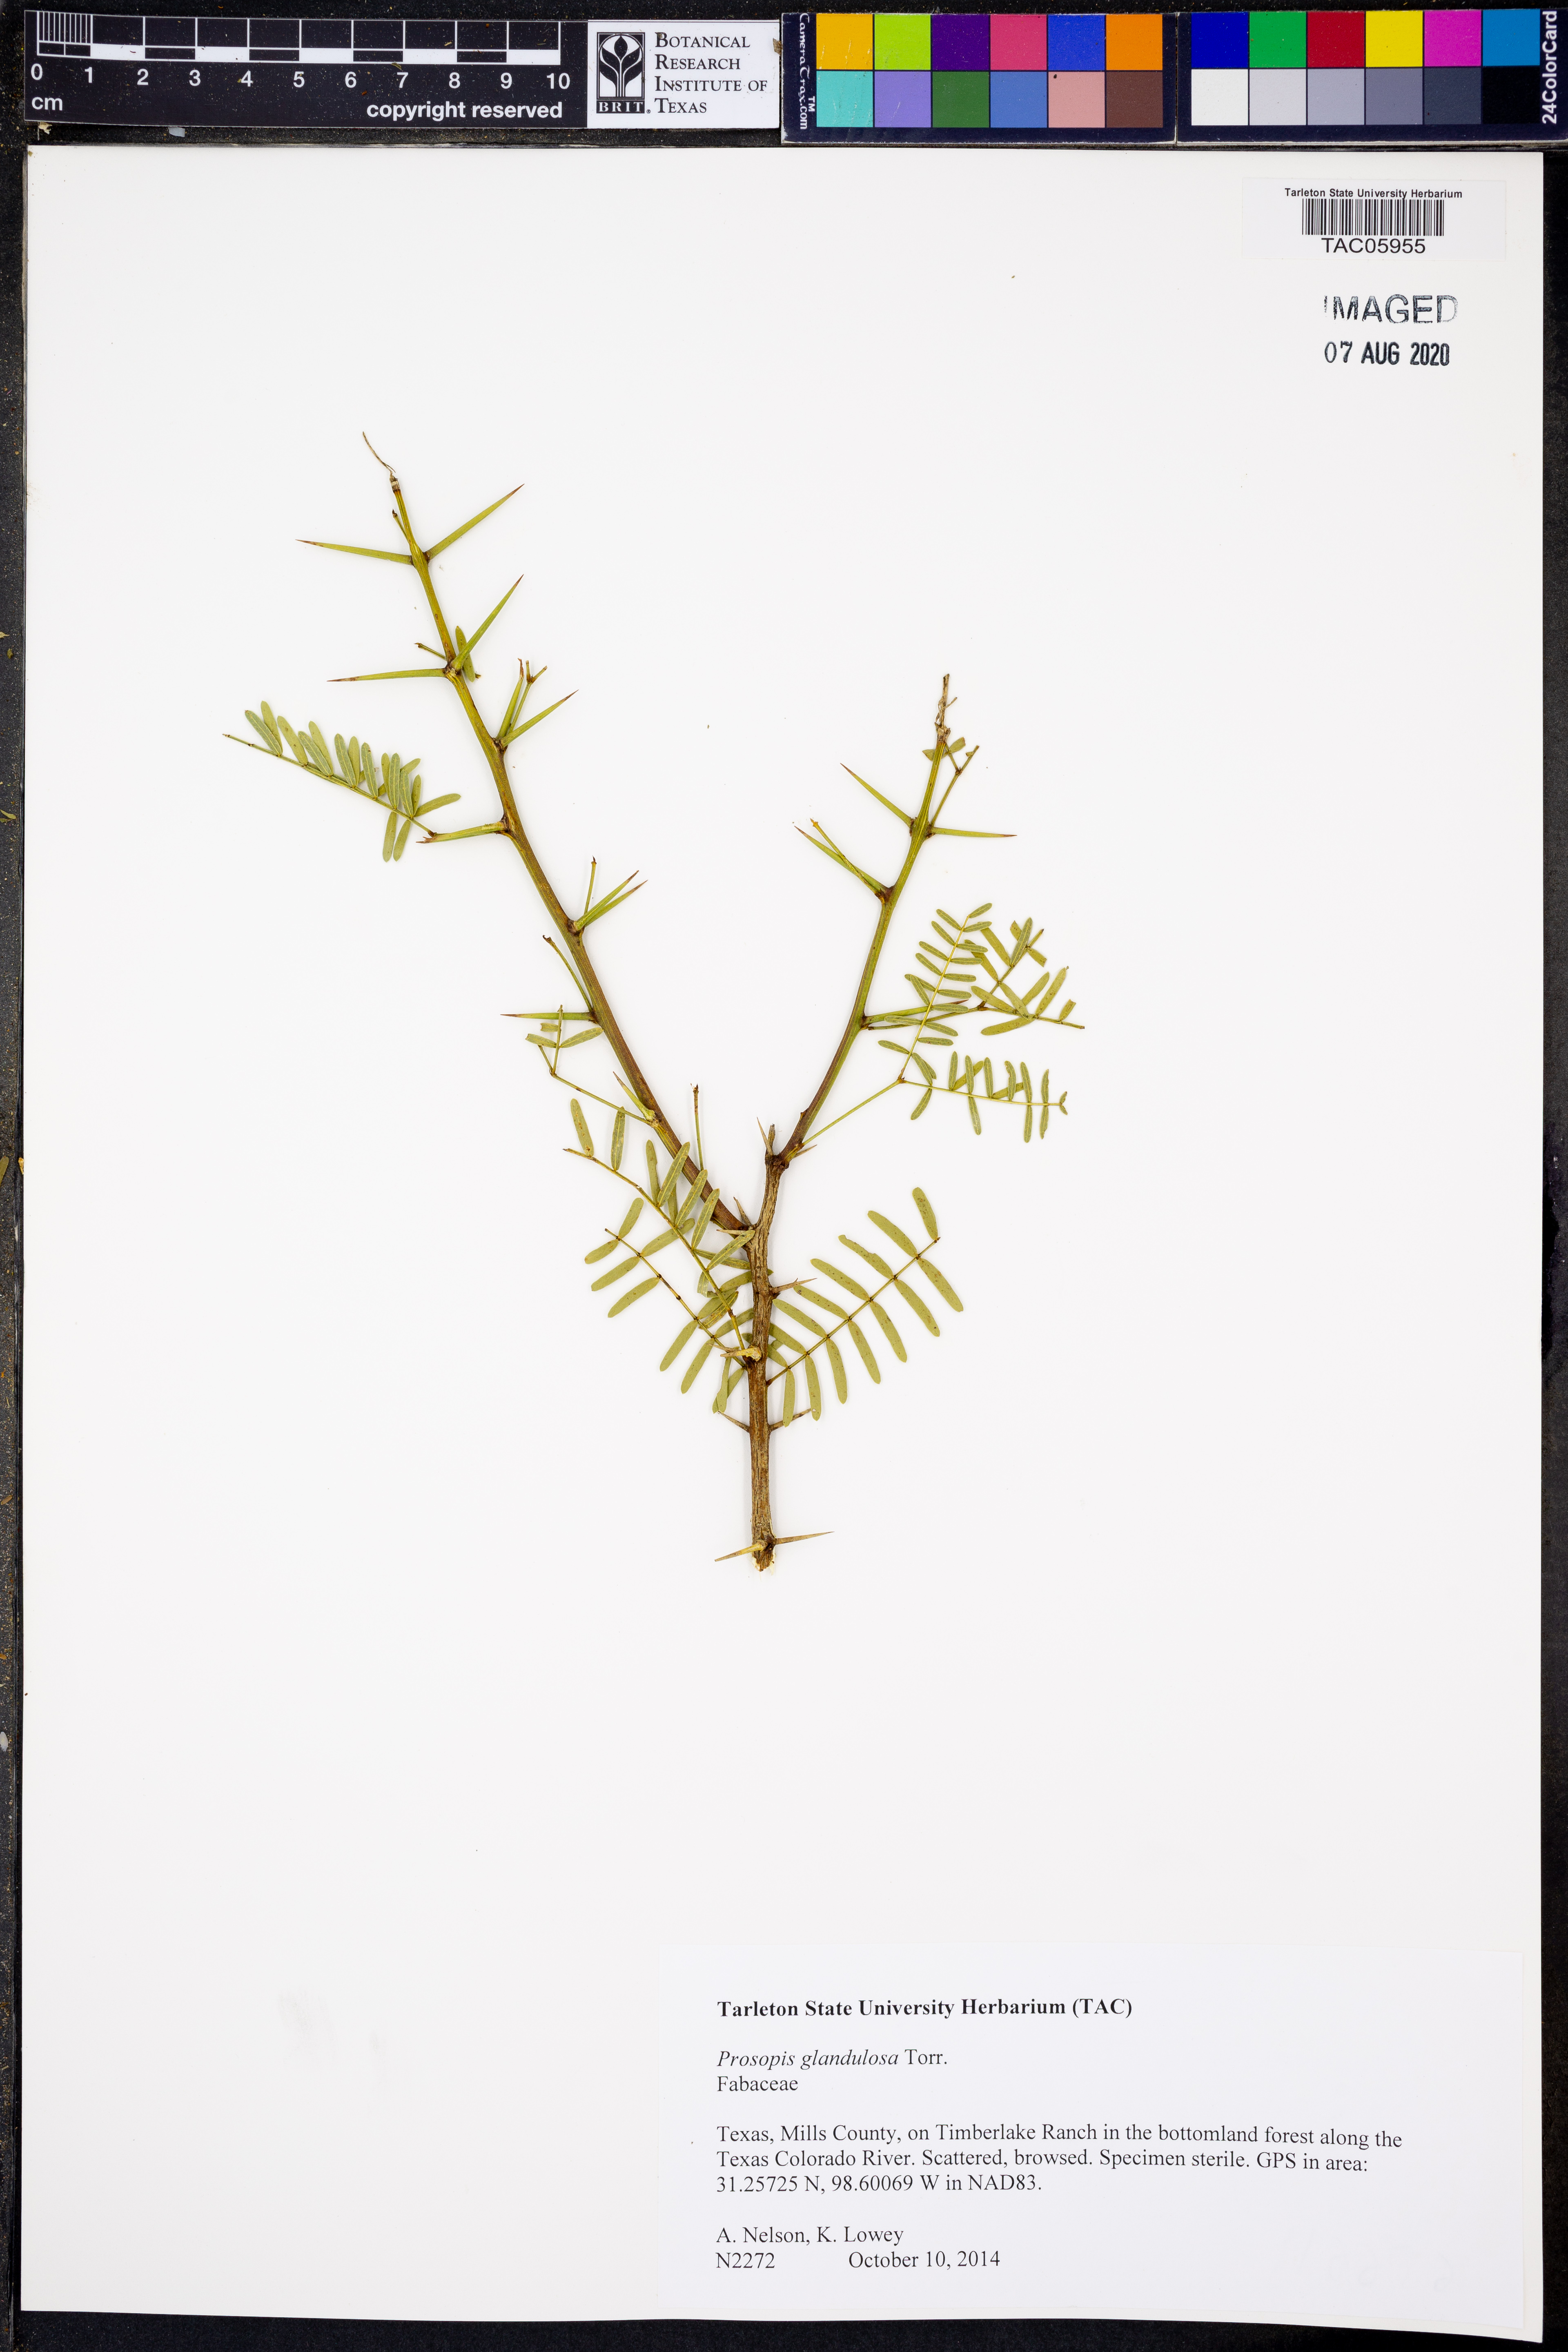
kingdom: Plantae
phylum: Tracheophyta
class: Magnoliopsida
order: Fabales
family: Fabaceae
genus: Prosopis
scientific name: Prosopis glandulosa
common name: Honey mesquite
